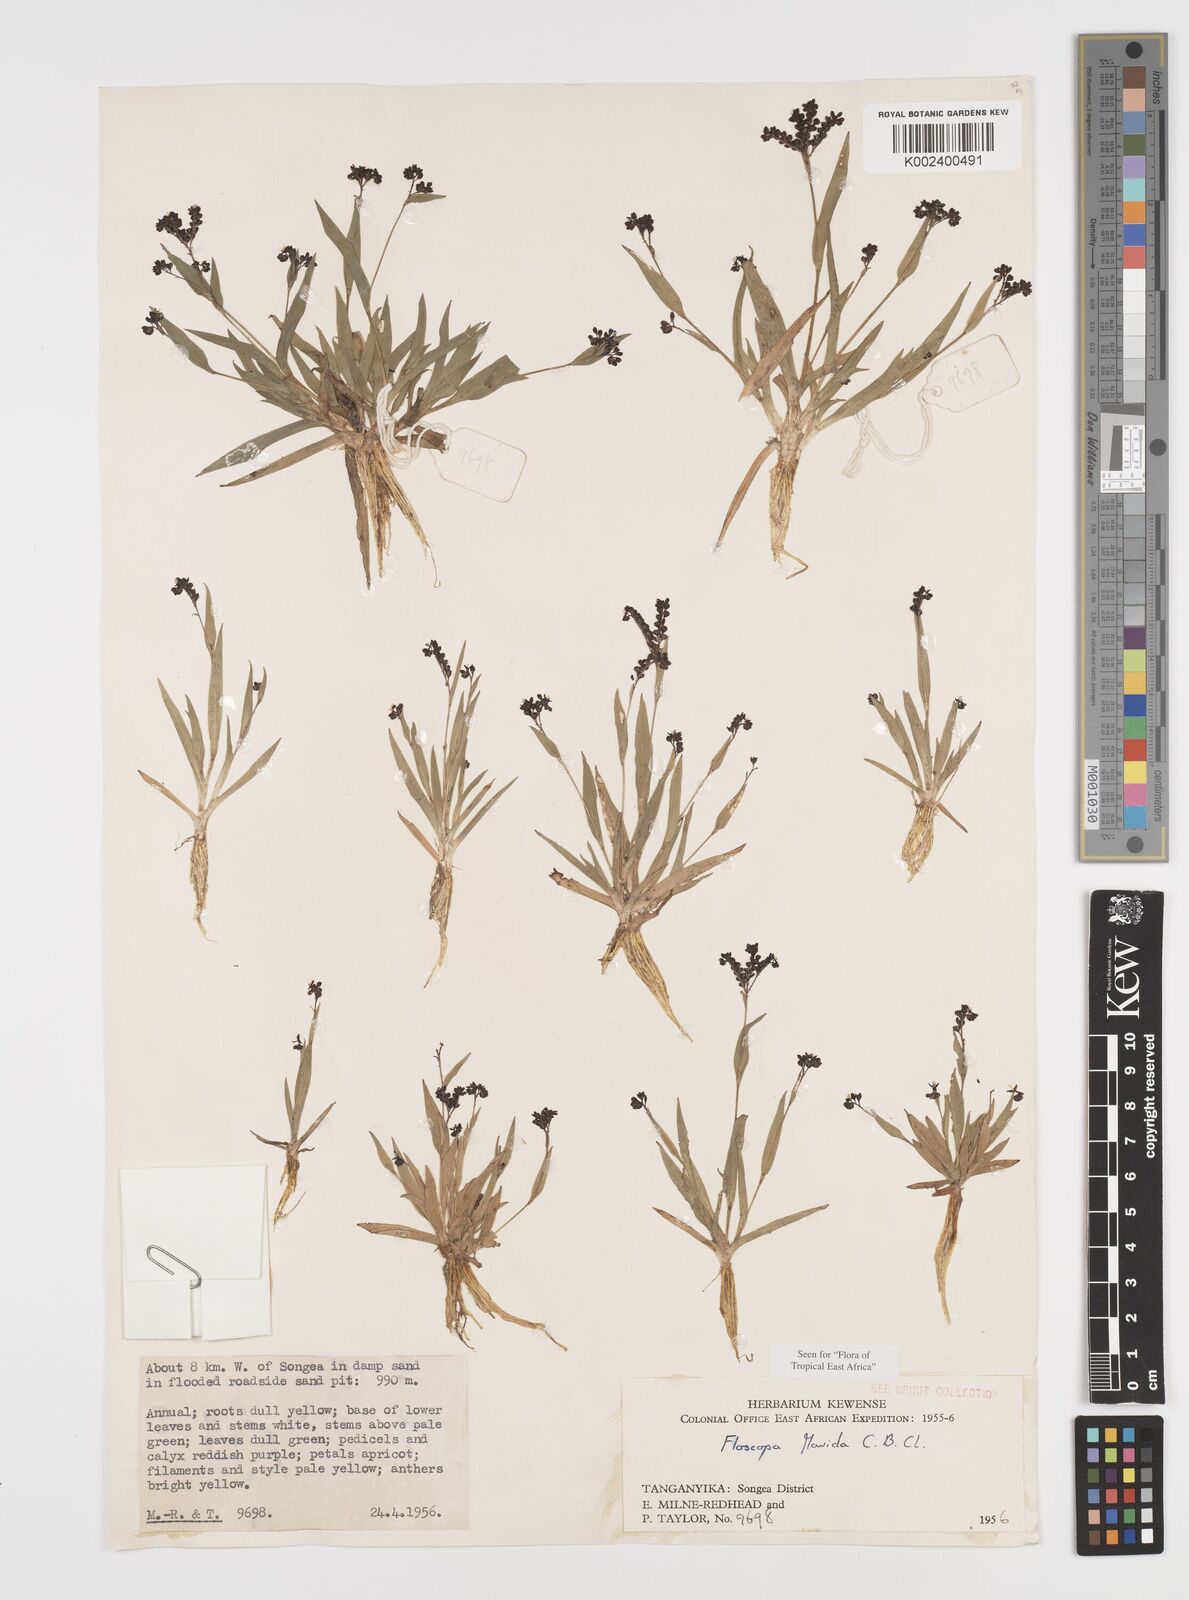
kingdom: Plantae
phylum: Tracheophyta
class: Liliopsida
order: Commelinales
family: Commelinaceae
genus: Floscopa
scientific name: Floscopa flavida
